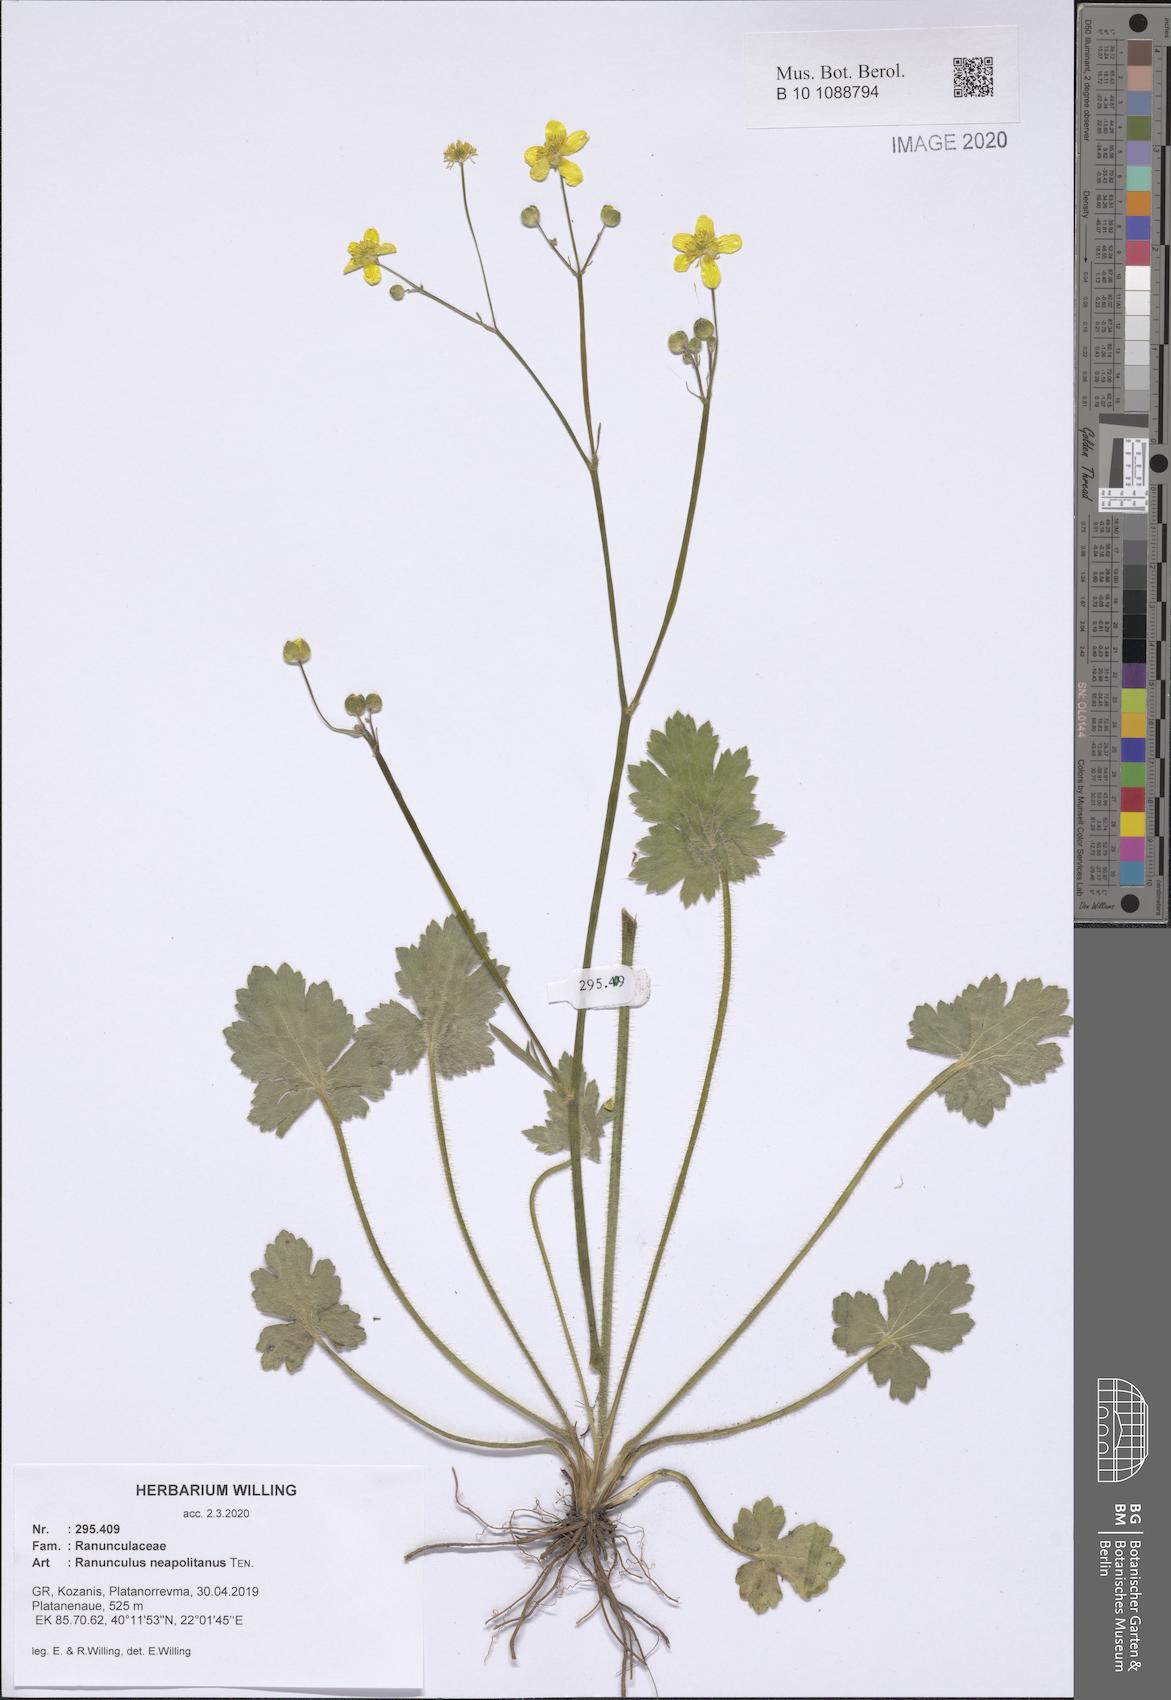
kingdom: Plantae
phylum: Tracheophyta
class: Magnoliopsida
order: Ranunculales
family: Ranunculaceae
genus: Ranunculus
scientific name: Ranunculus neapolitanus
